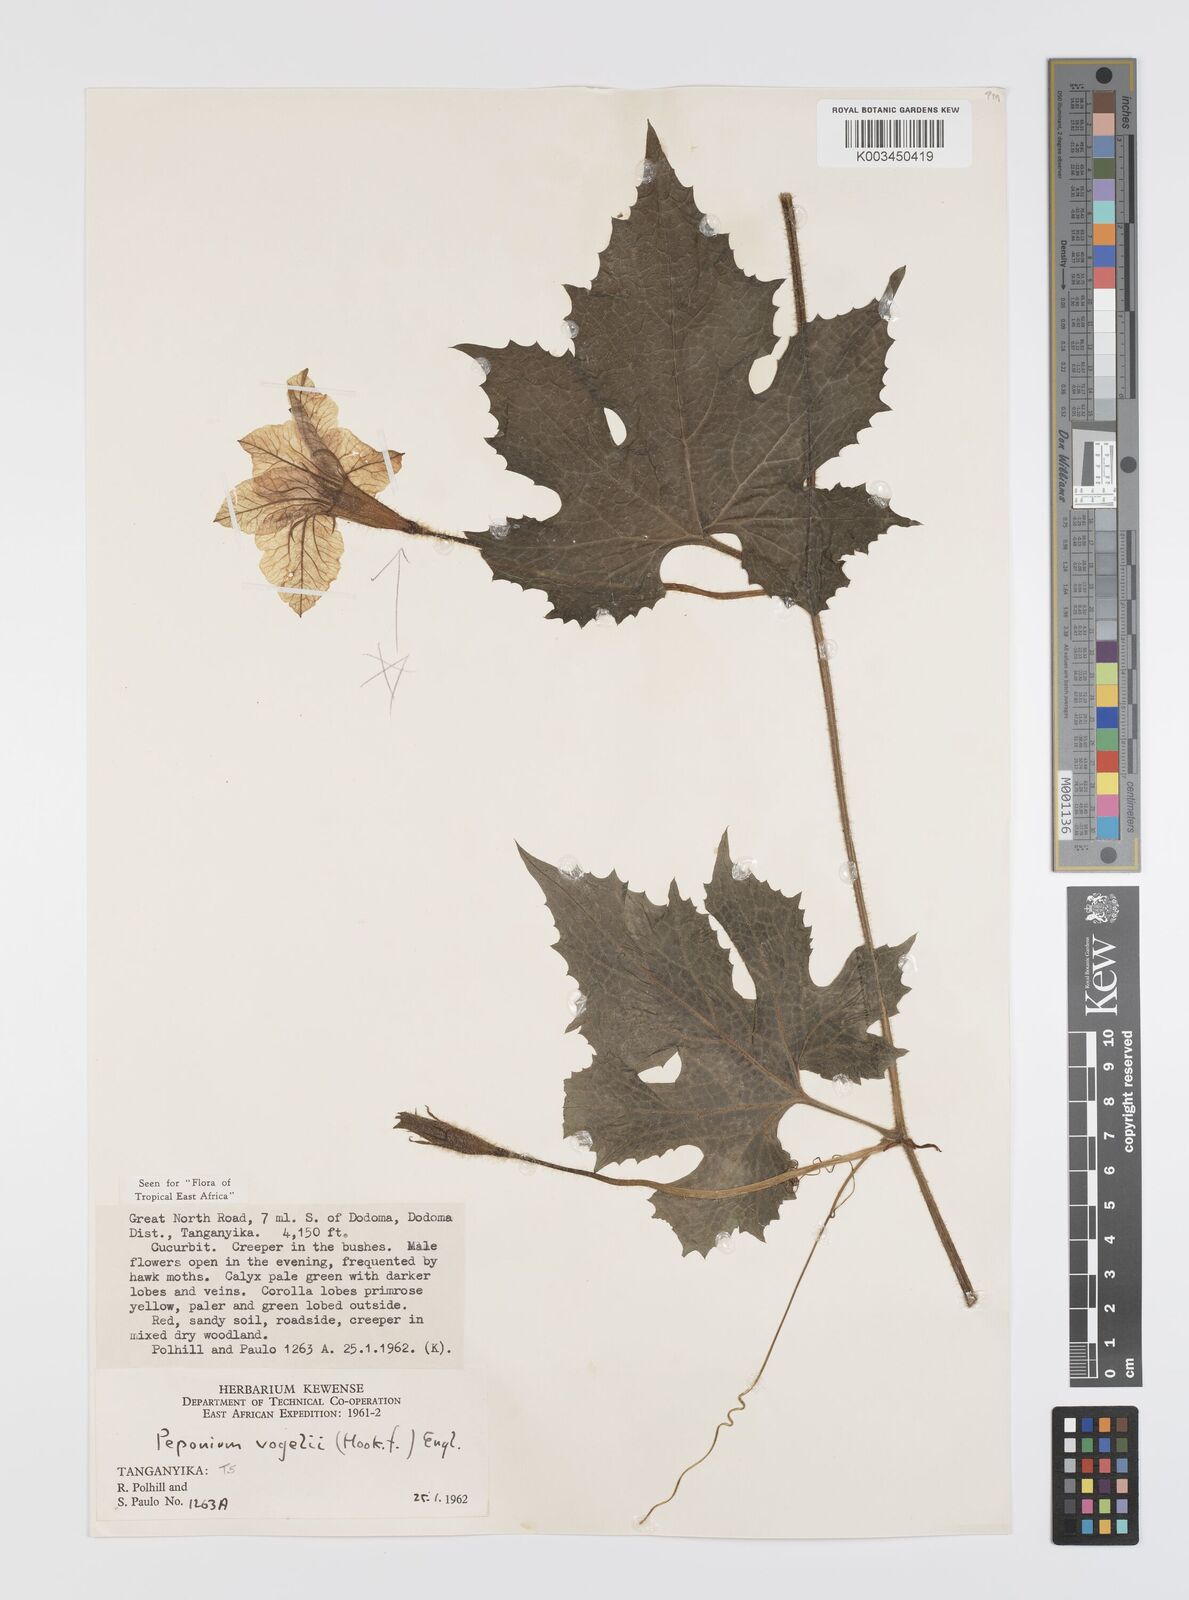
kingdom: Plantae
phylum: Tracheophyta
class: Magnoliopsida
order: Cucurbitales
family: Cucurbitaceae
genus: Peponium
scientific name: Peponium vogelii
